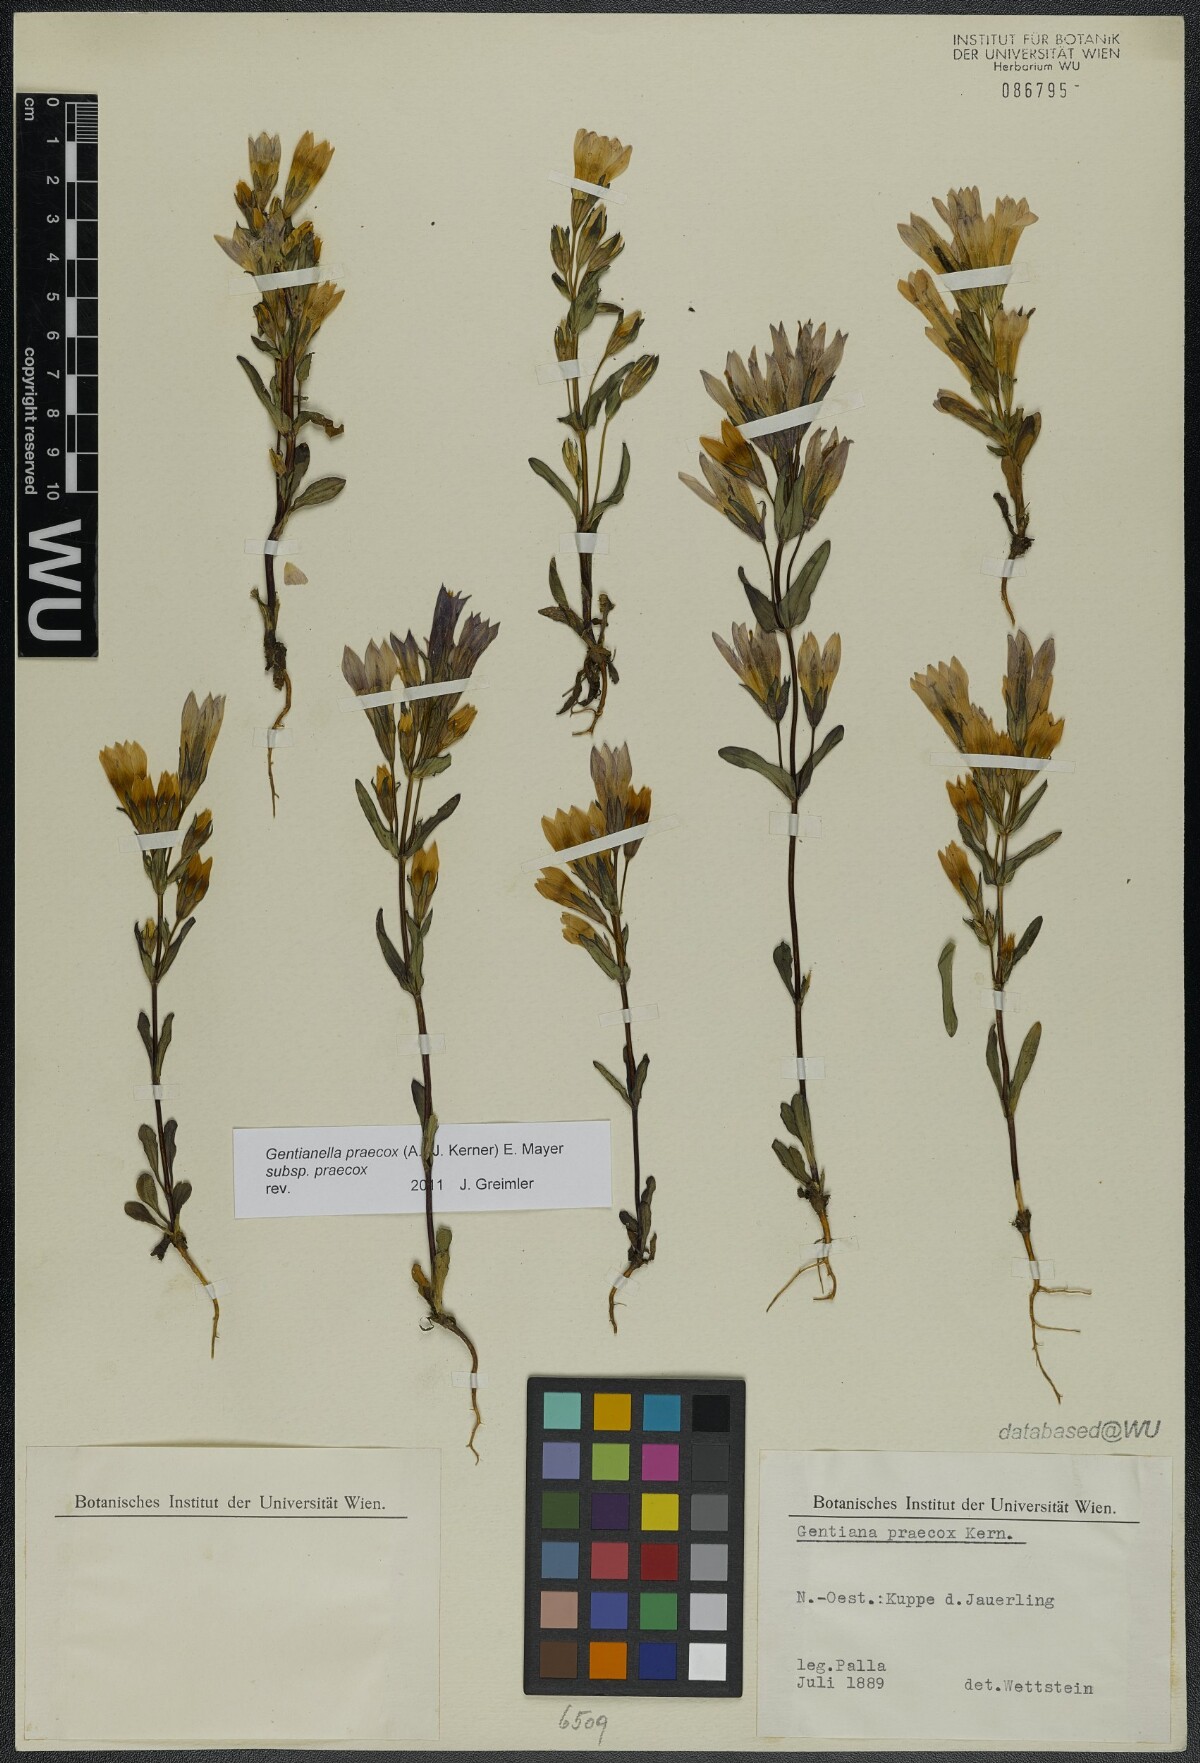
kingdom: Plantae
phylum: Tracheophyta
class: Magnoliopsida
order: Gentianales
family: Gentianaceae
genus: Gentianella
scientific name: Gentianella praecox
